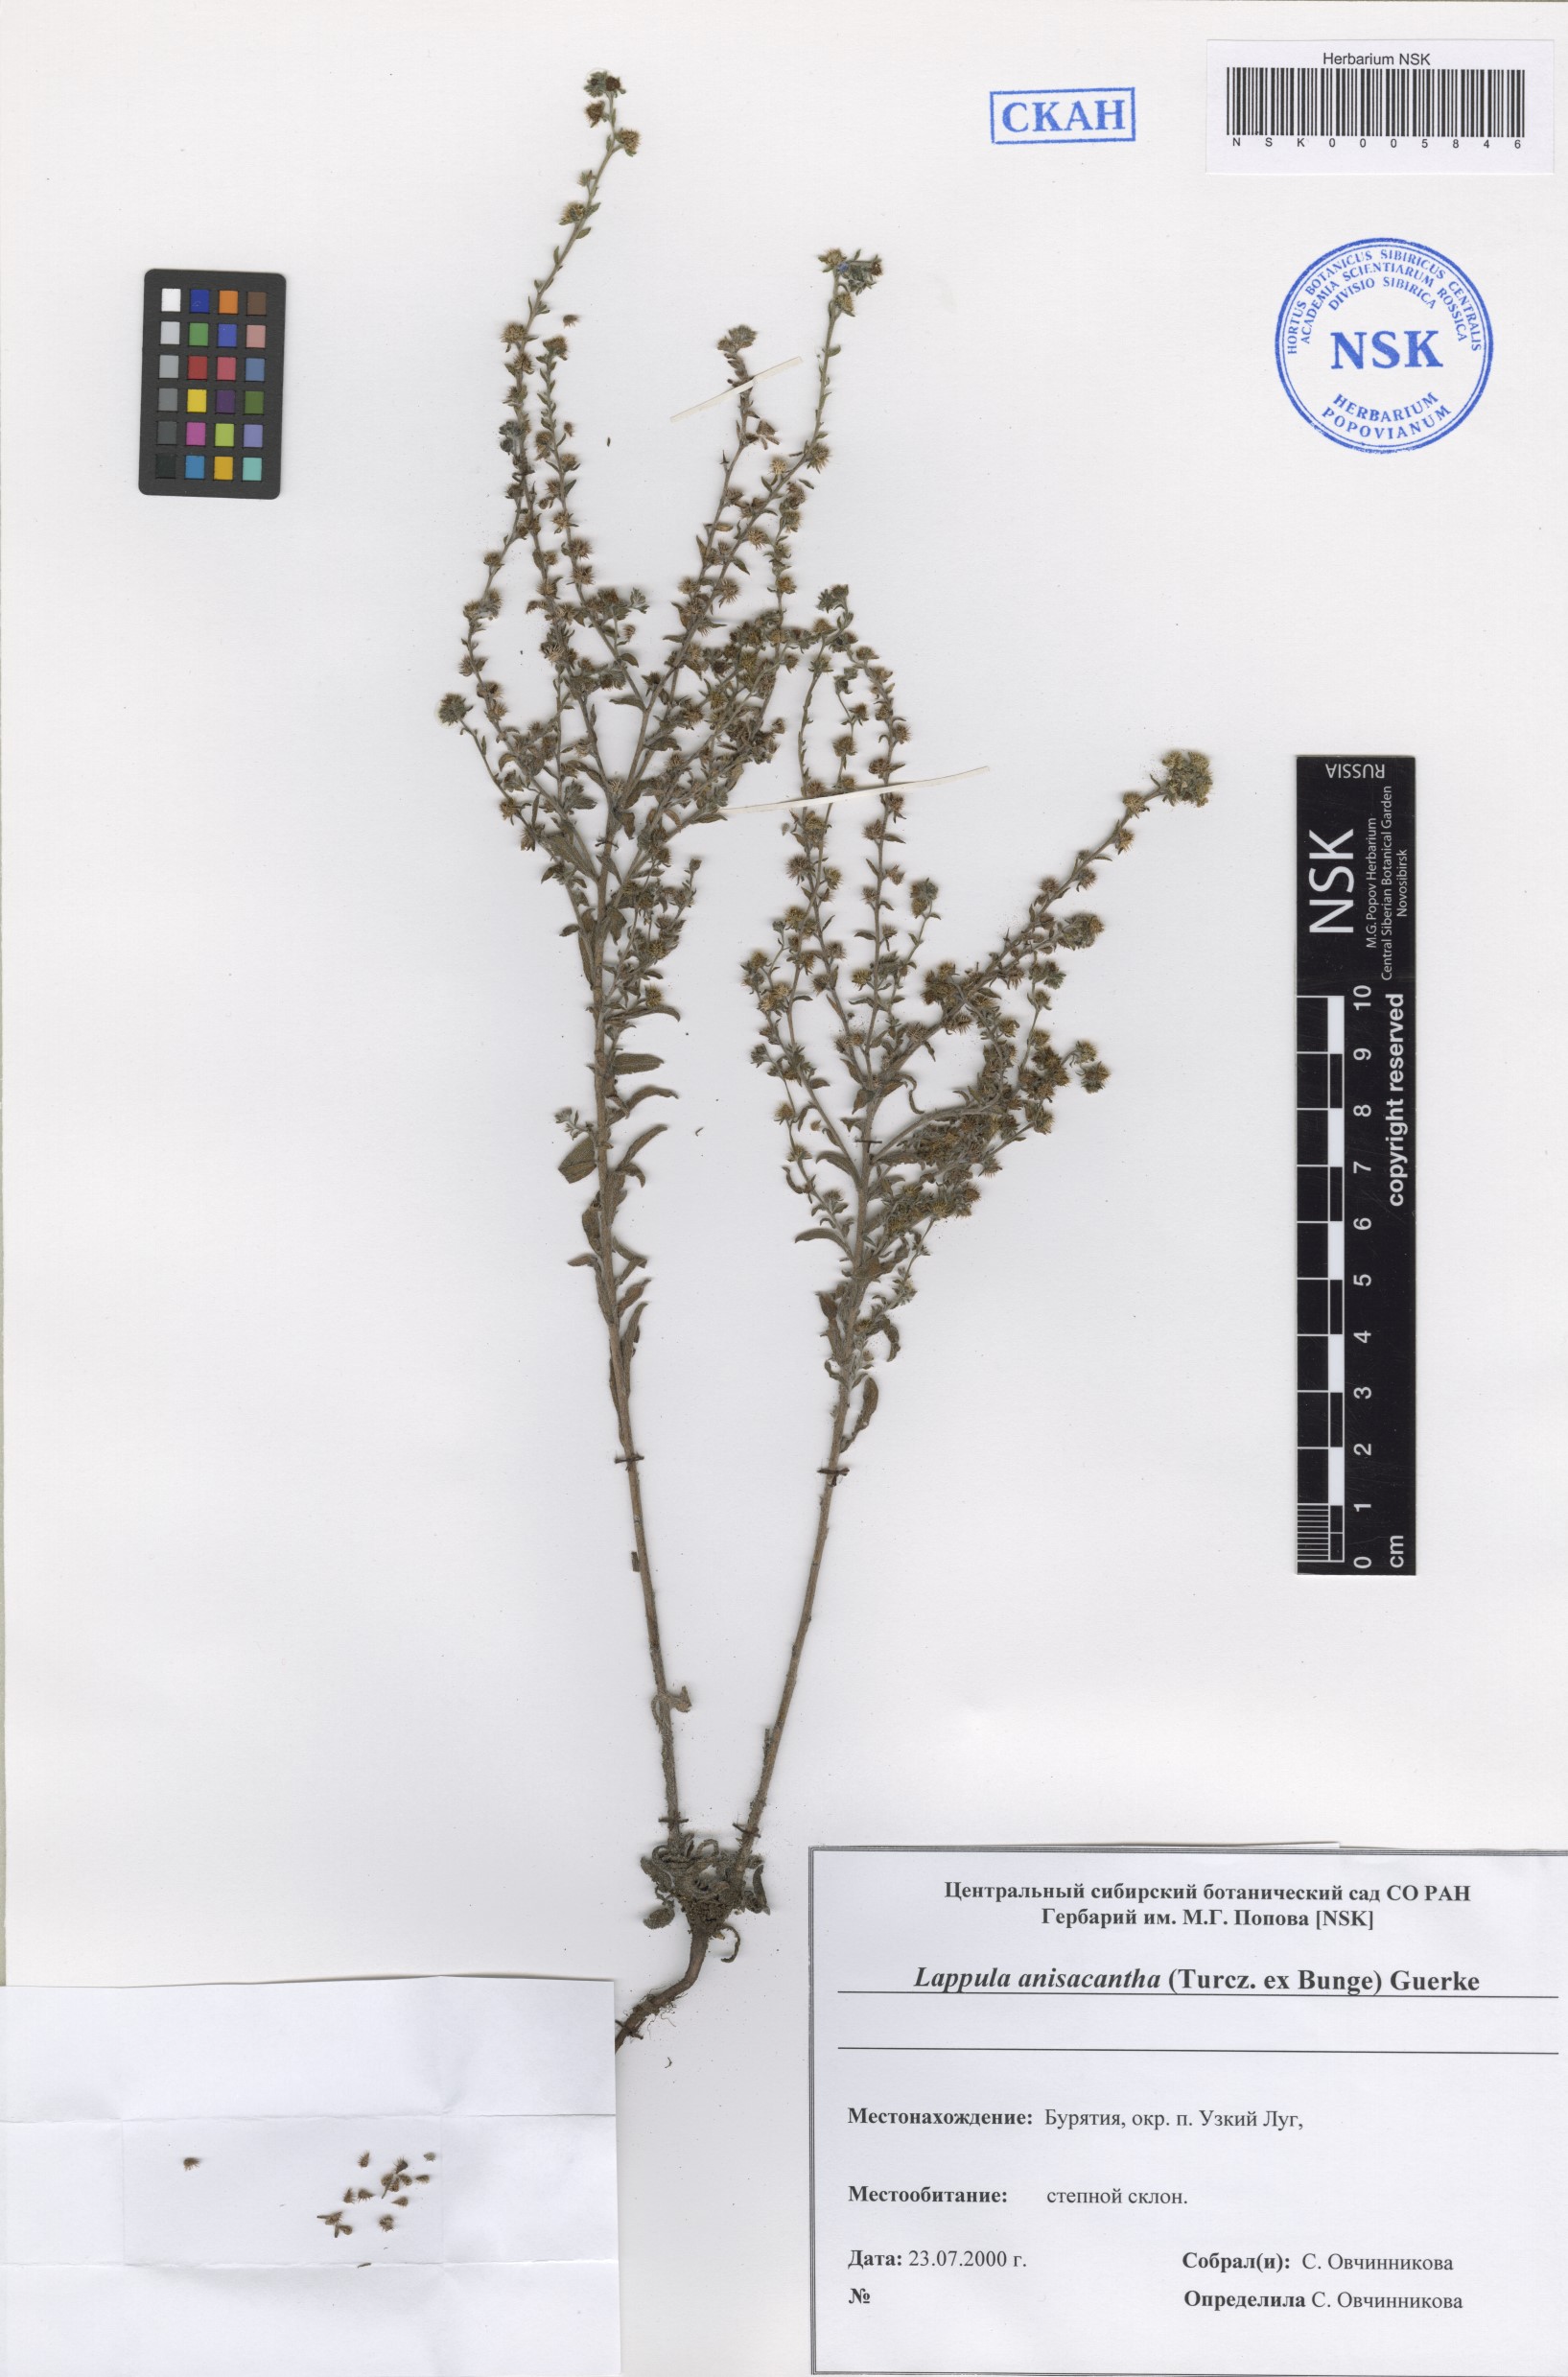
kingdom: Plantae
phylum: Tracheophyta
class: Magnoliopsida
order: Boraginales
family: Boraginaceae
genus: Lappula
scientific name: Lappula intermedia
